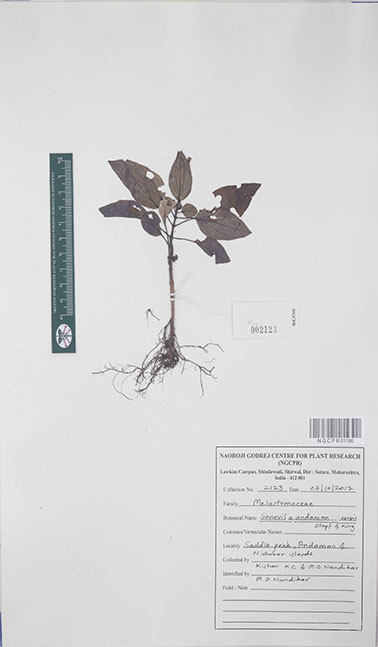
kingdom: Plantae
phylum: Tracheophyta
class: Magnoliopsida
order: Myrtales
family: Melastomataceae
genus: Sonerila
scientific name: Sonerila andamanensis
